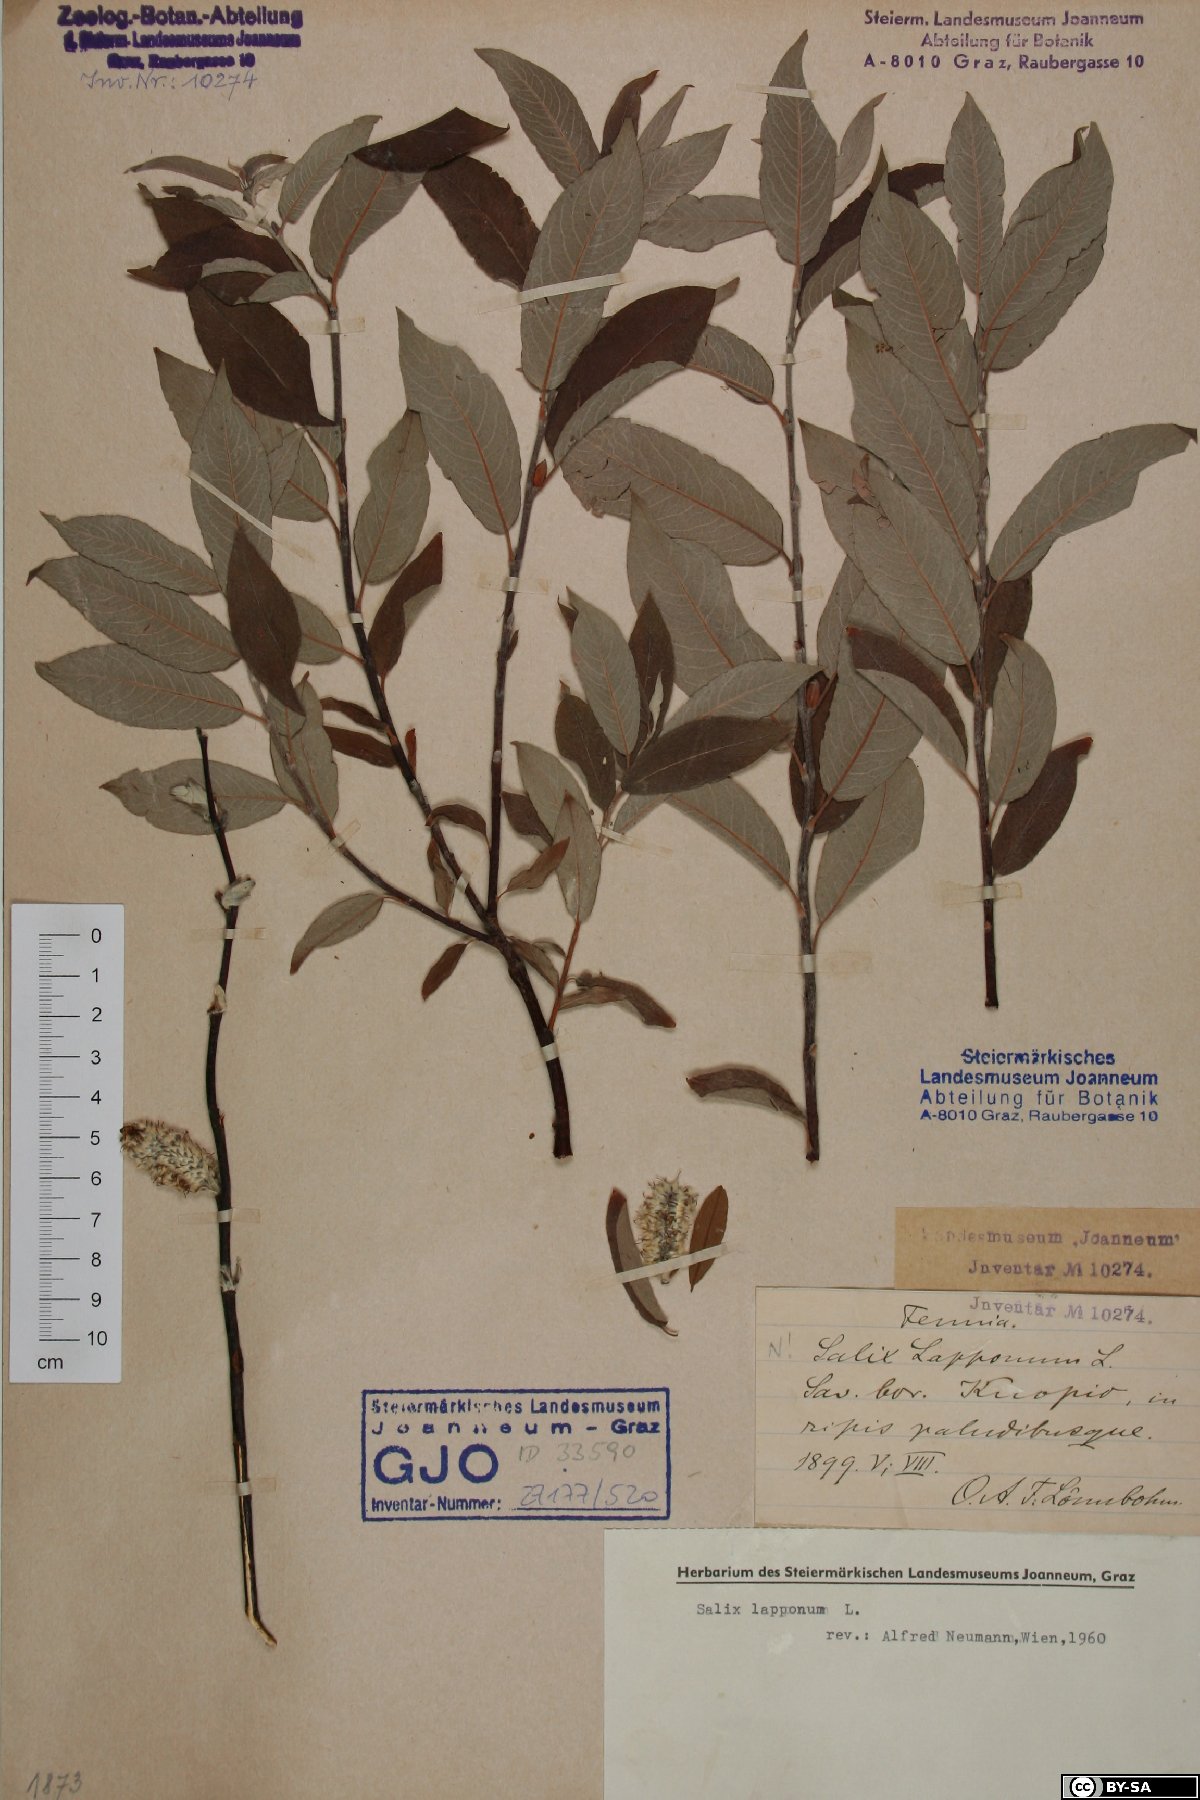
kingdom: Plantae
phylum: Tracheophyta
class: Magnoliopsida
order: Malpighiales
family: Salicaceae
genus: Salix
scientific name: Salix lapponum
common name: Downy willow
